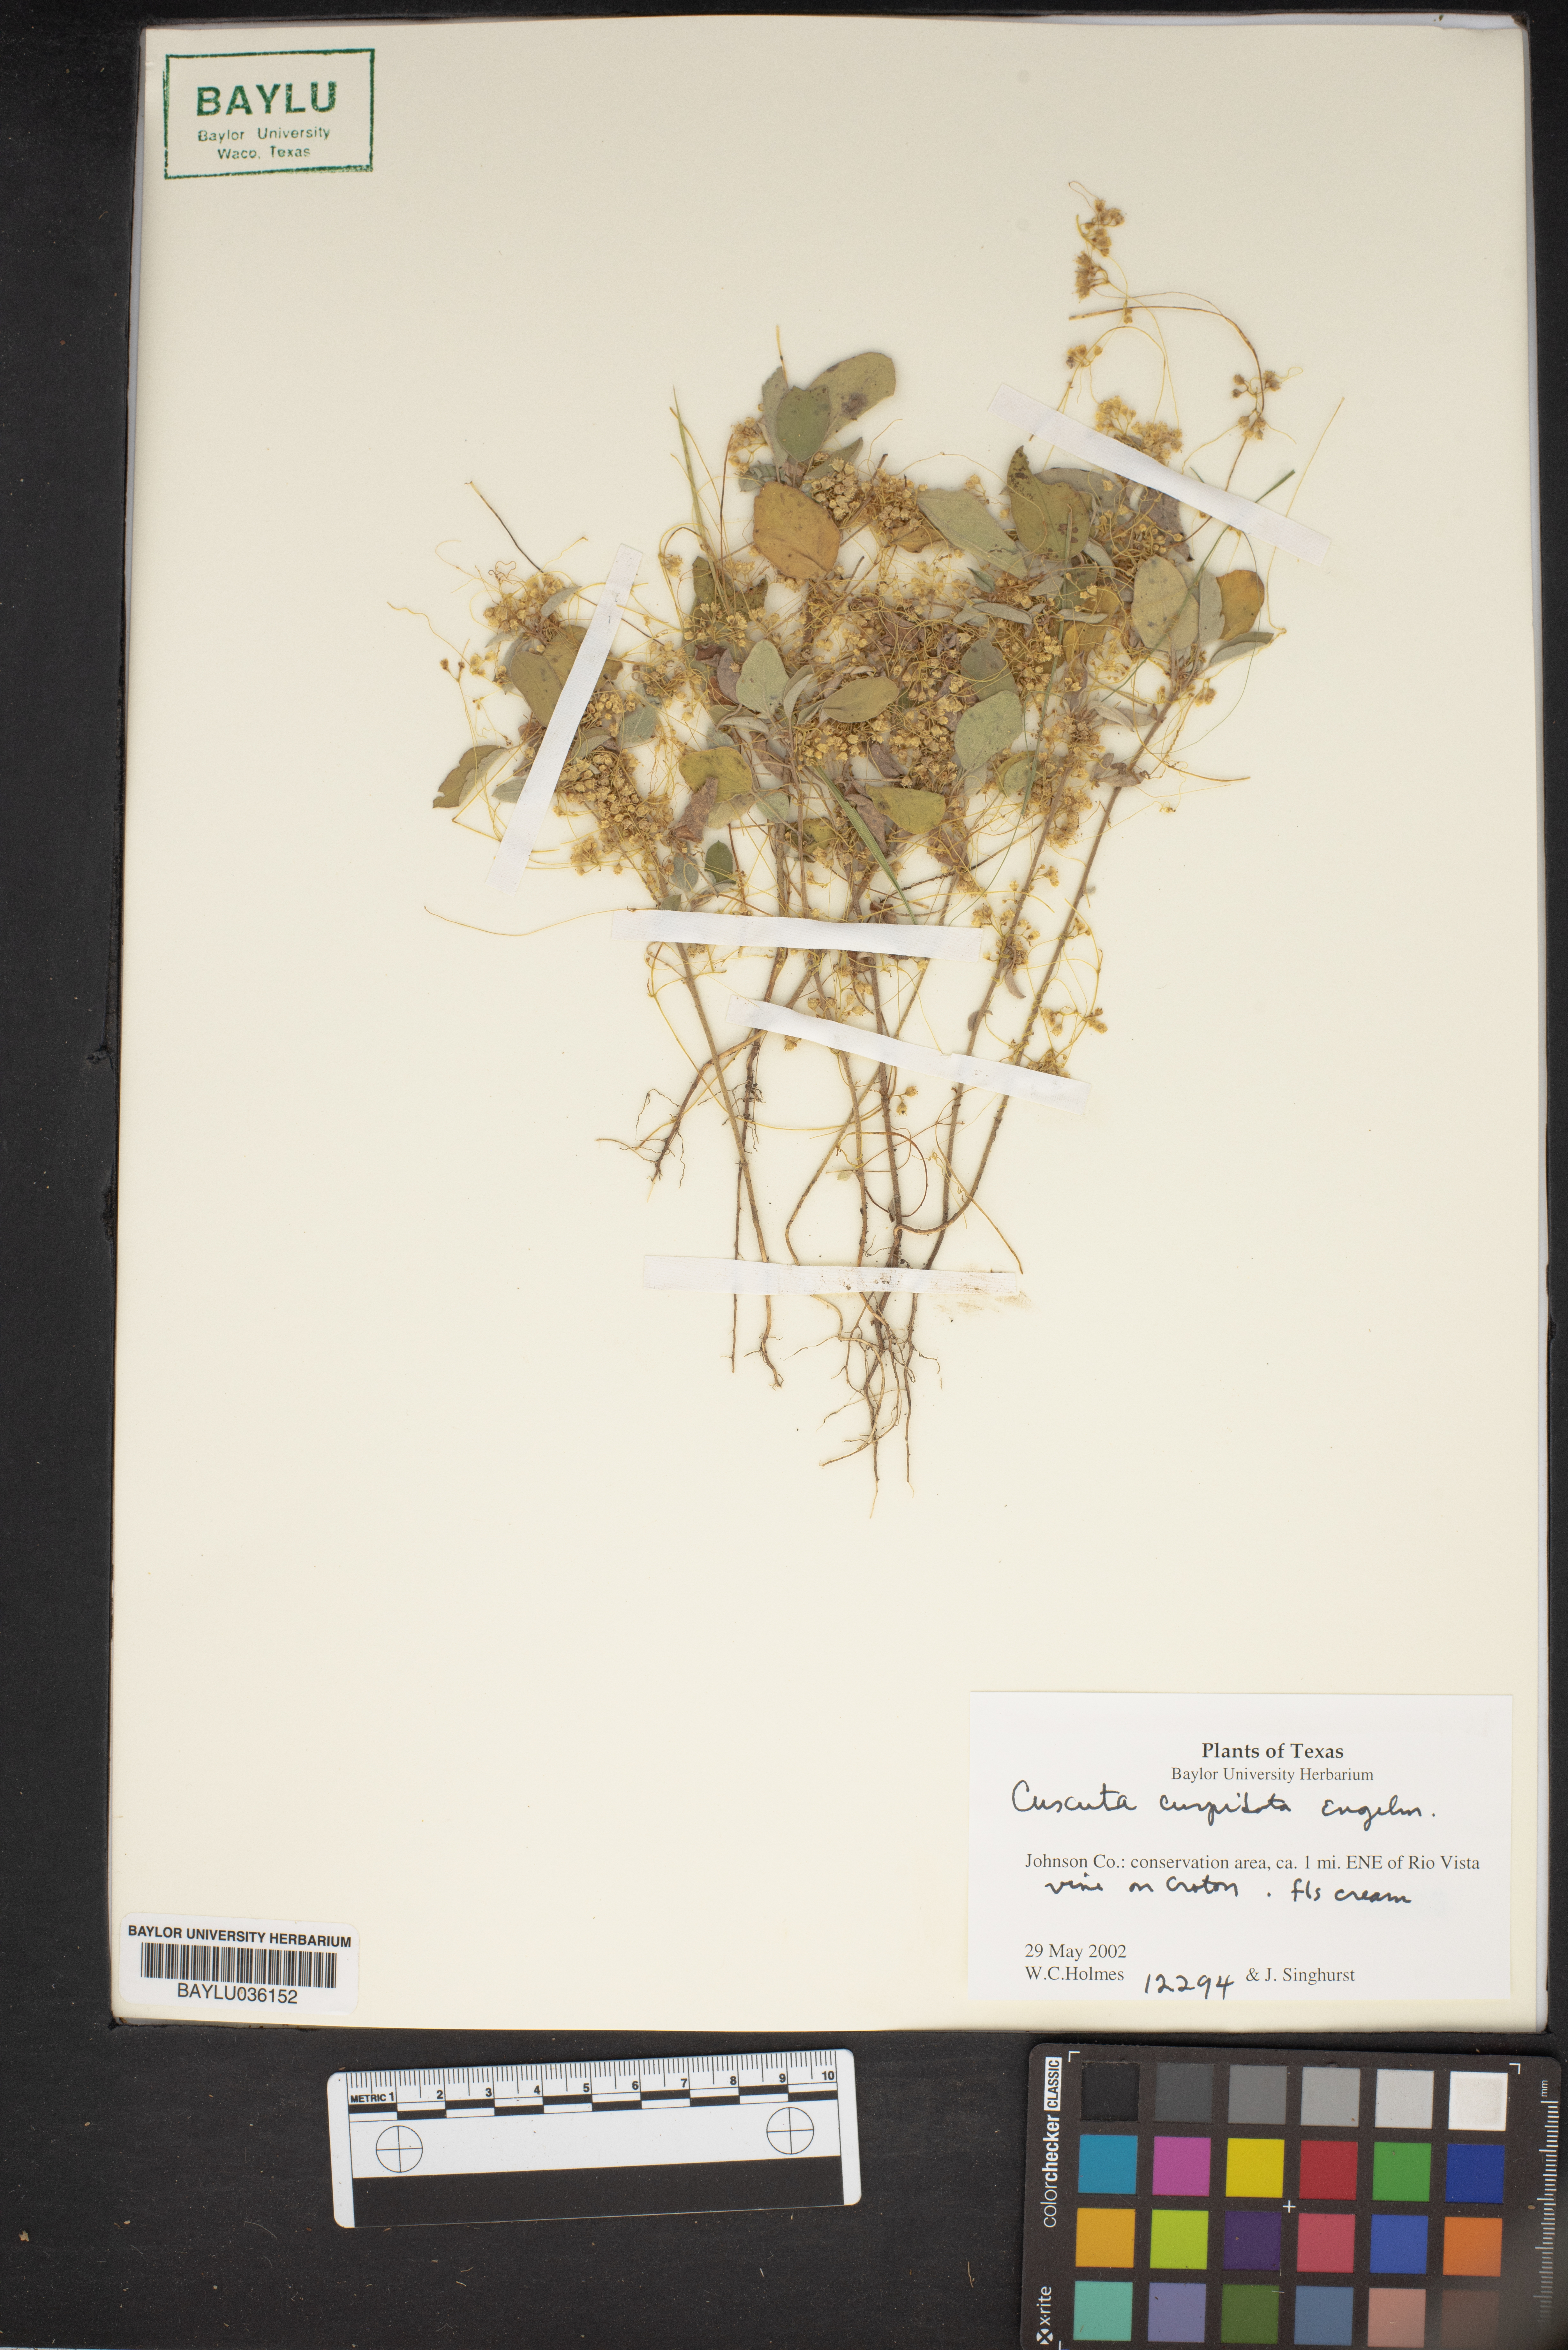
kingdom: Plantae
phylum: Tracheophyta
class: Magnoliopsida
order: Solanales
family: Convolvulaceae
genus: Cuscuta
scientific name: Cuscuta cuspidata
